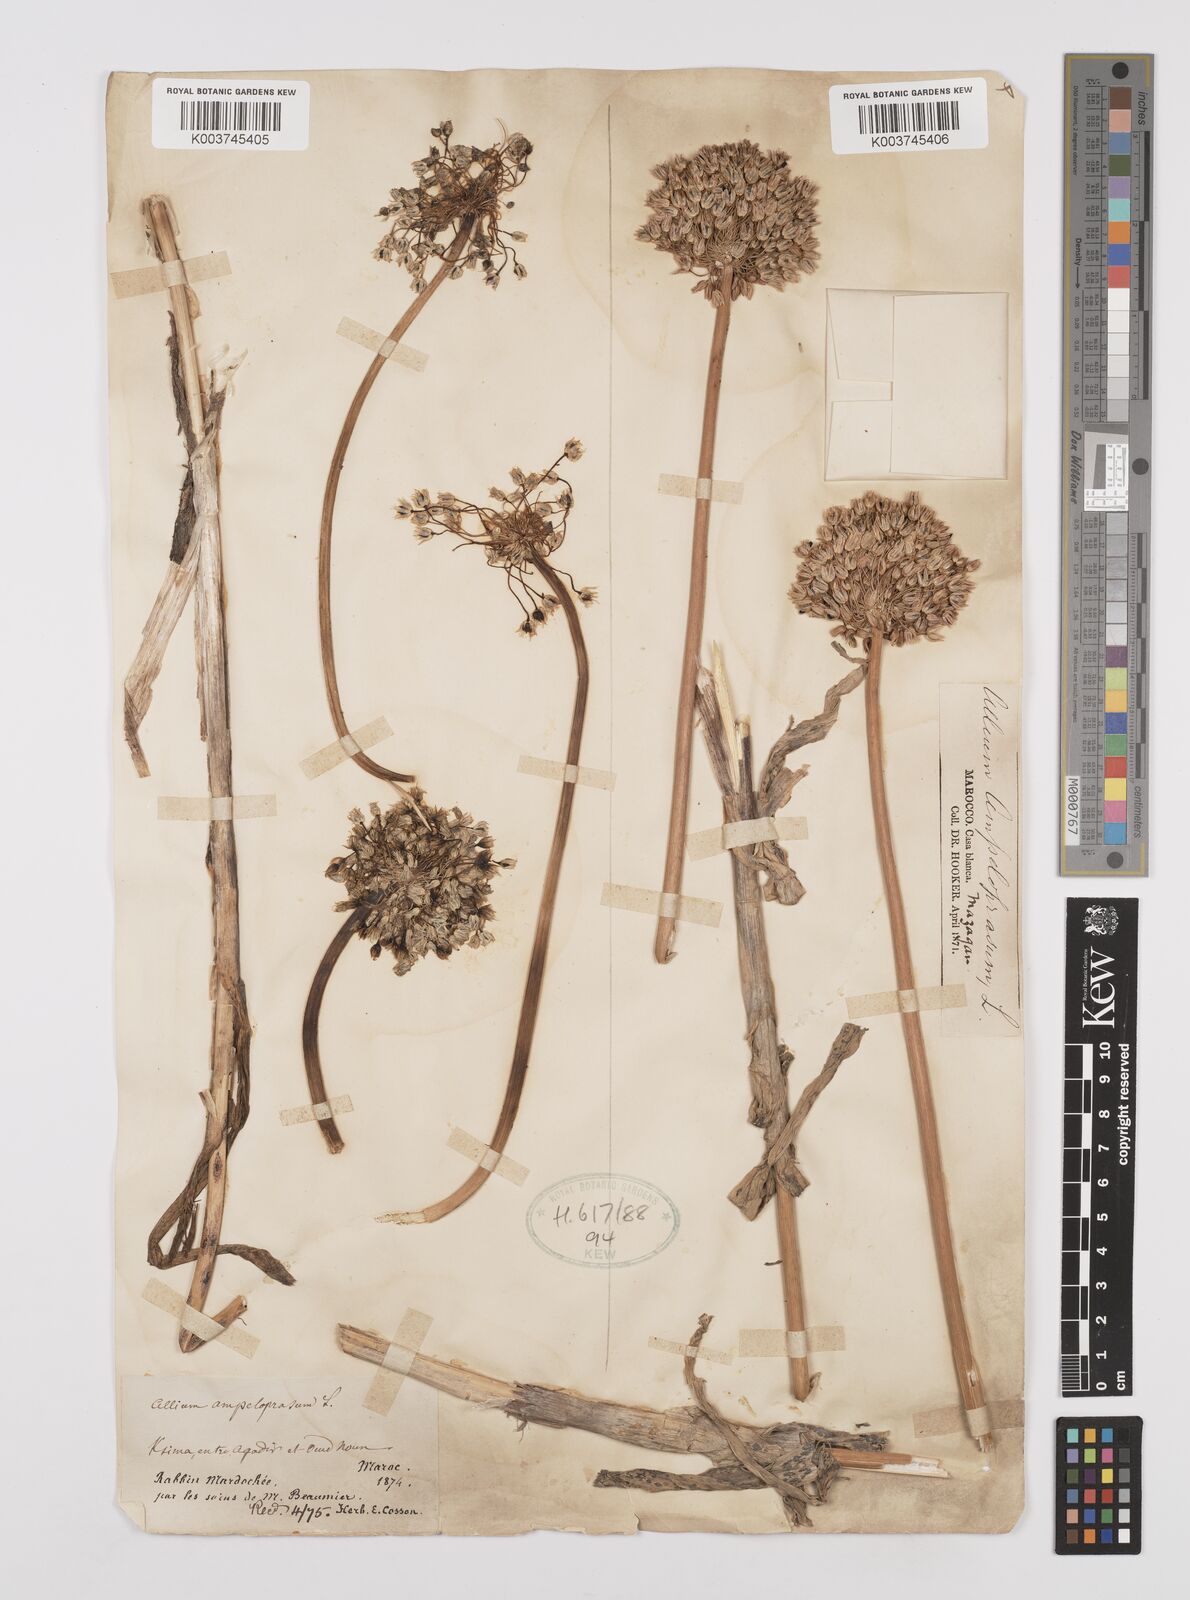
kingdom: Plantae
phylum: Tracheophyta
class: Liliopsida
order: Asparagales
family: Amaryllidaceae
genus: Allium
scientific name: Allium rotundum
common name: Sand leek
